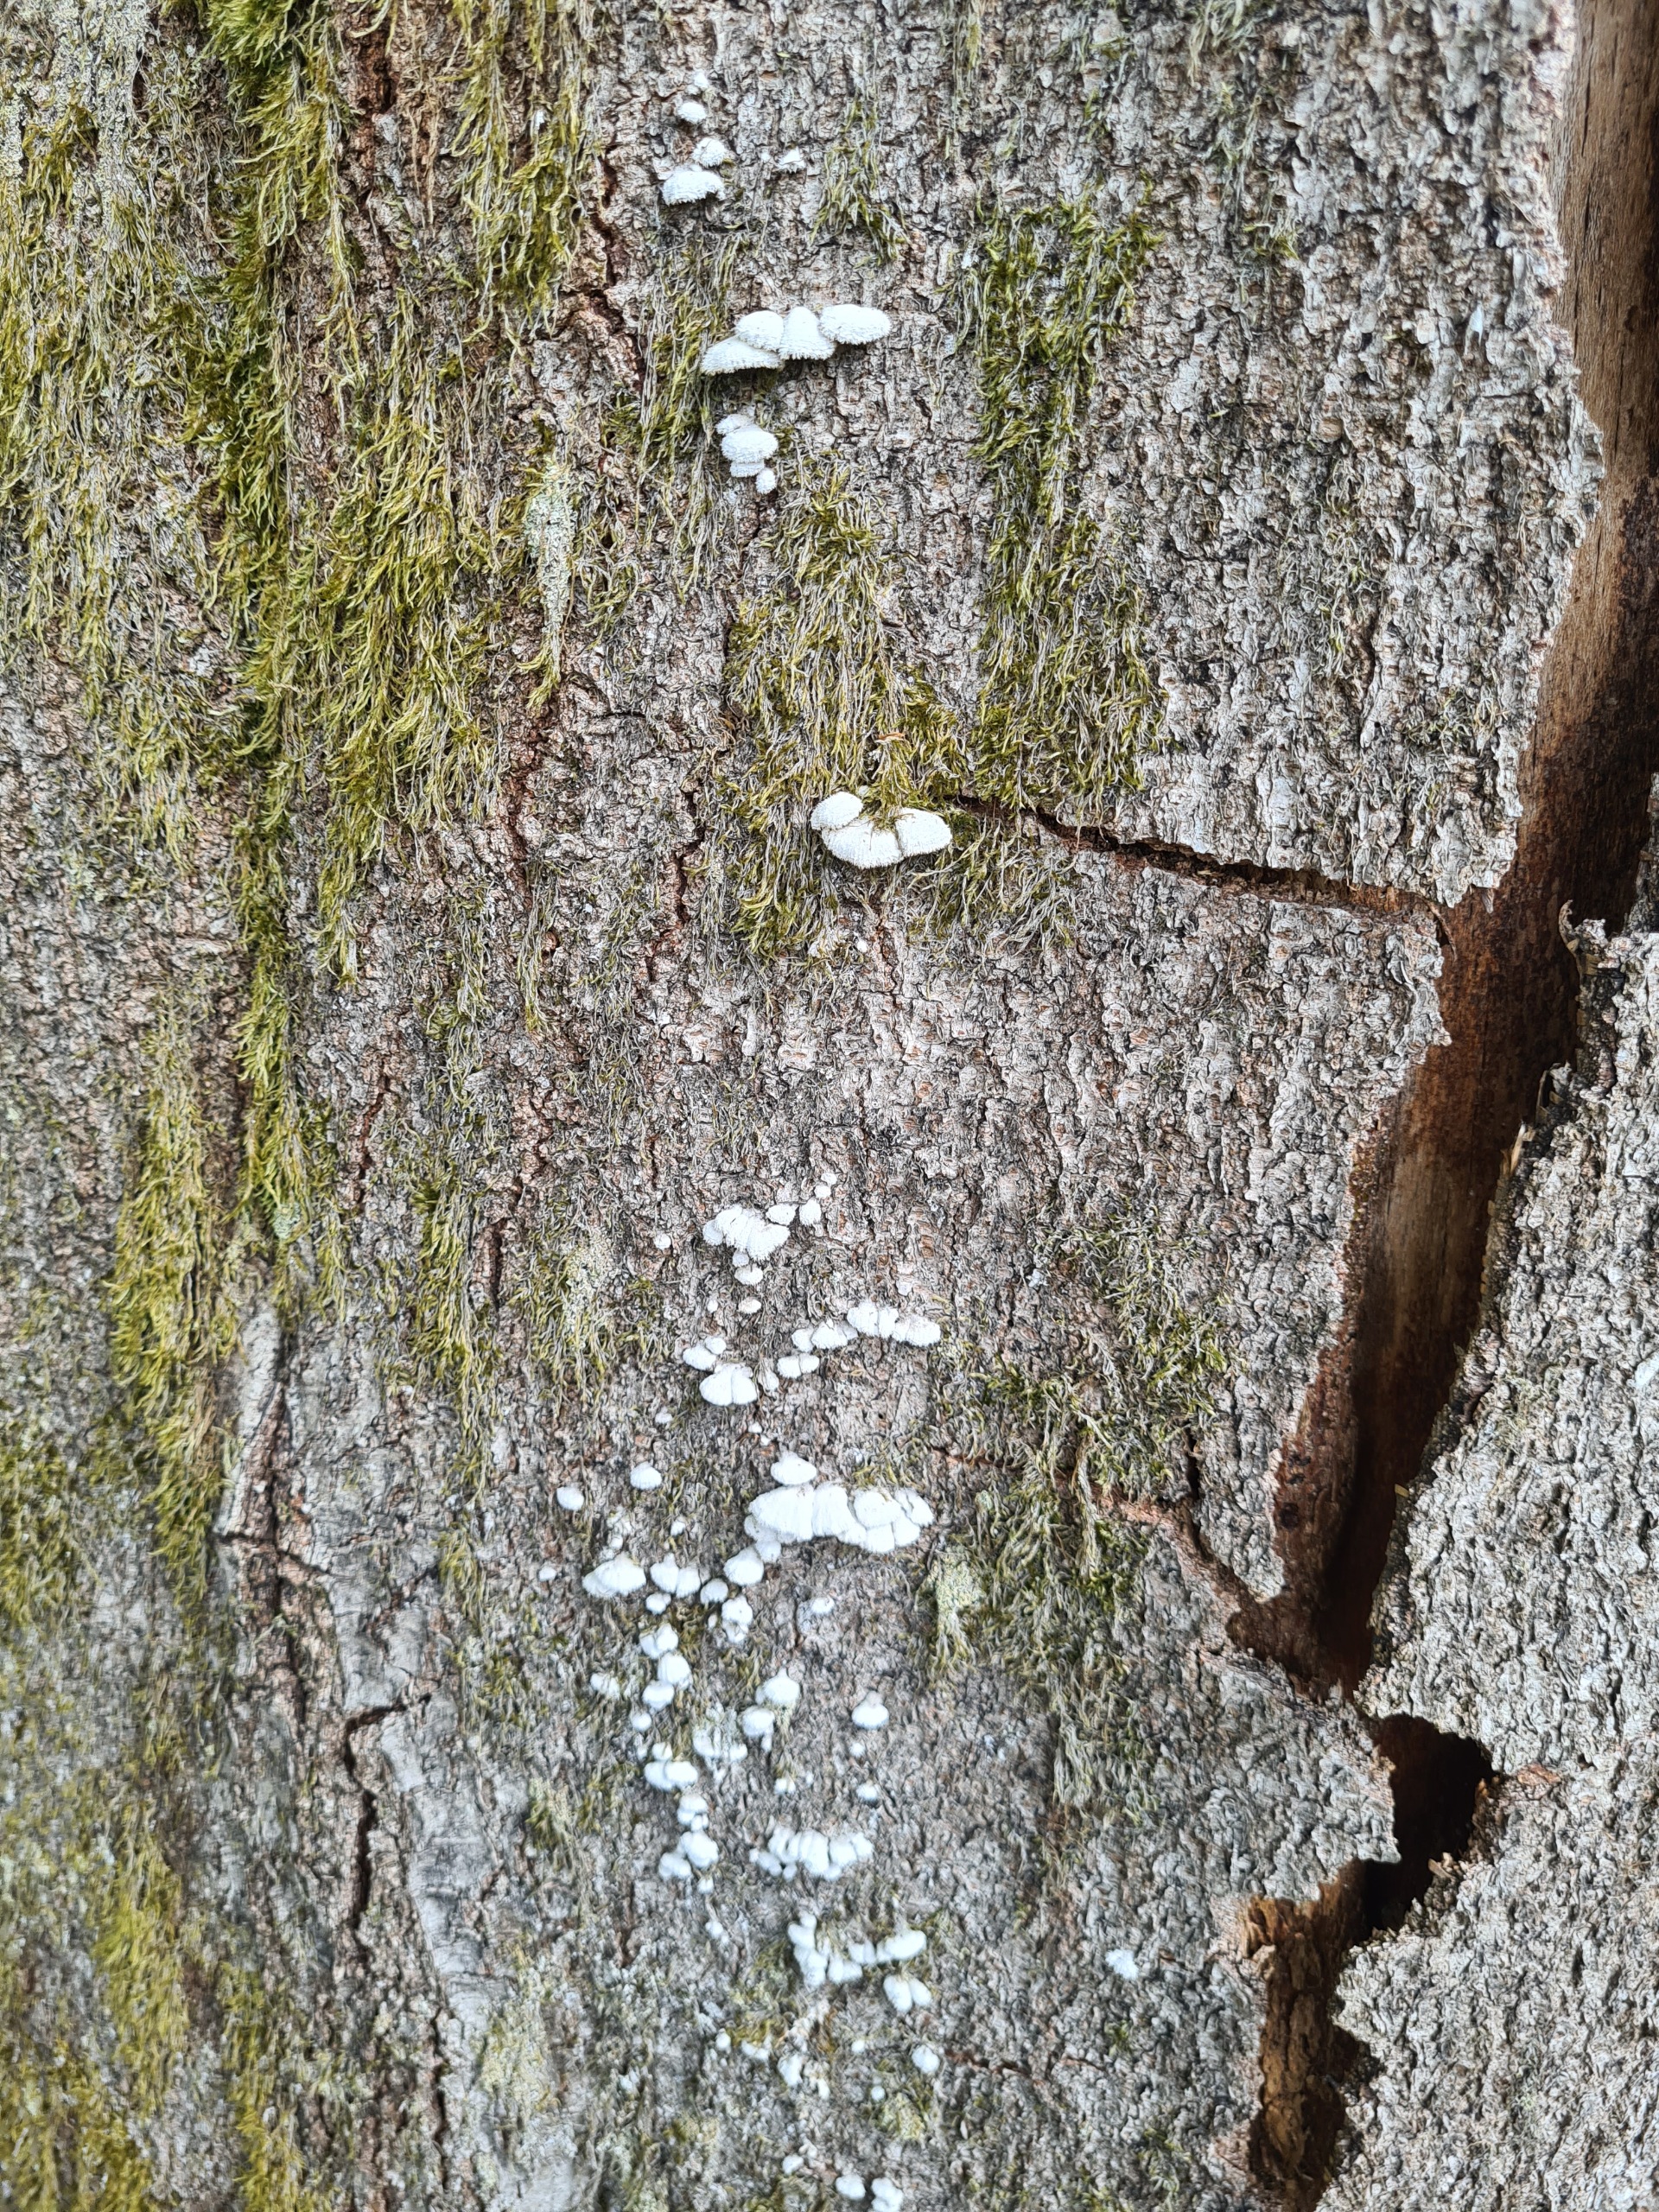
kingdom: Fungi
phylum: Basidiomycota
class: Agaricomycetes
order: Agaricales
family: Schizophyllaceae
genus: Schizophyllum
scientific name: Schizophyllum commune
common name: Kløvblad
